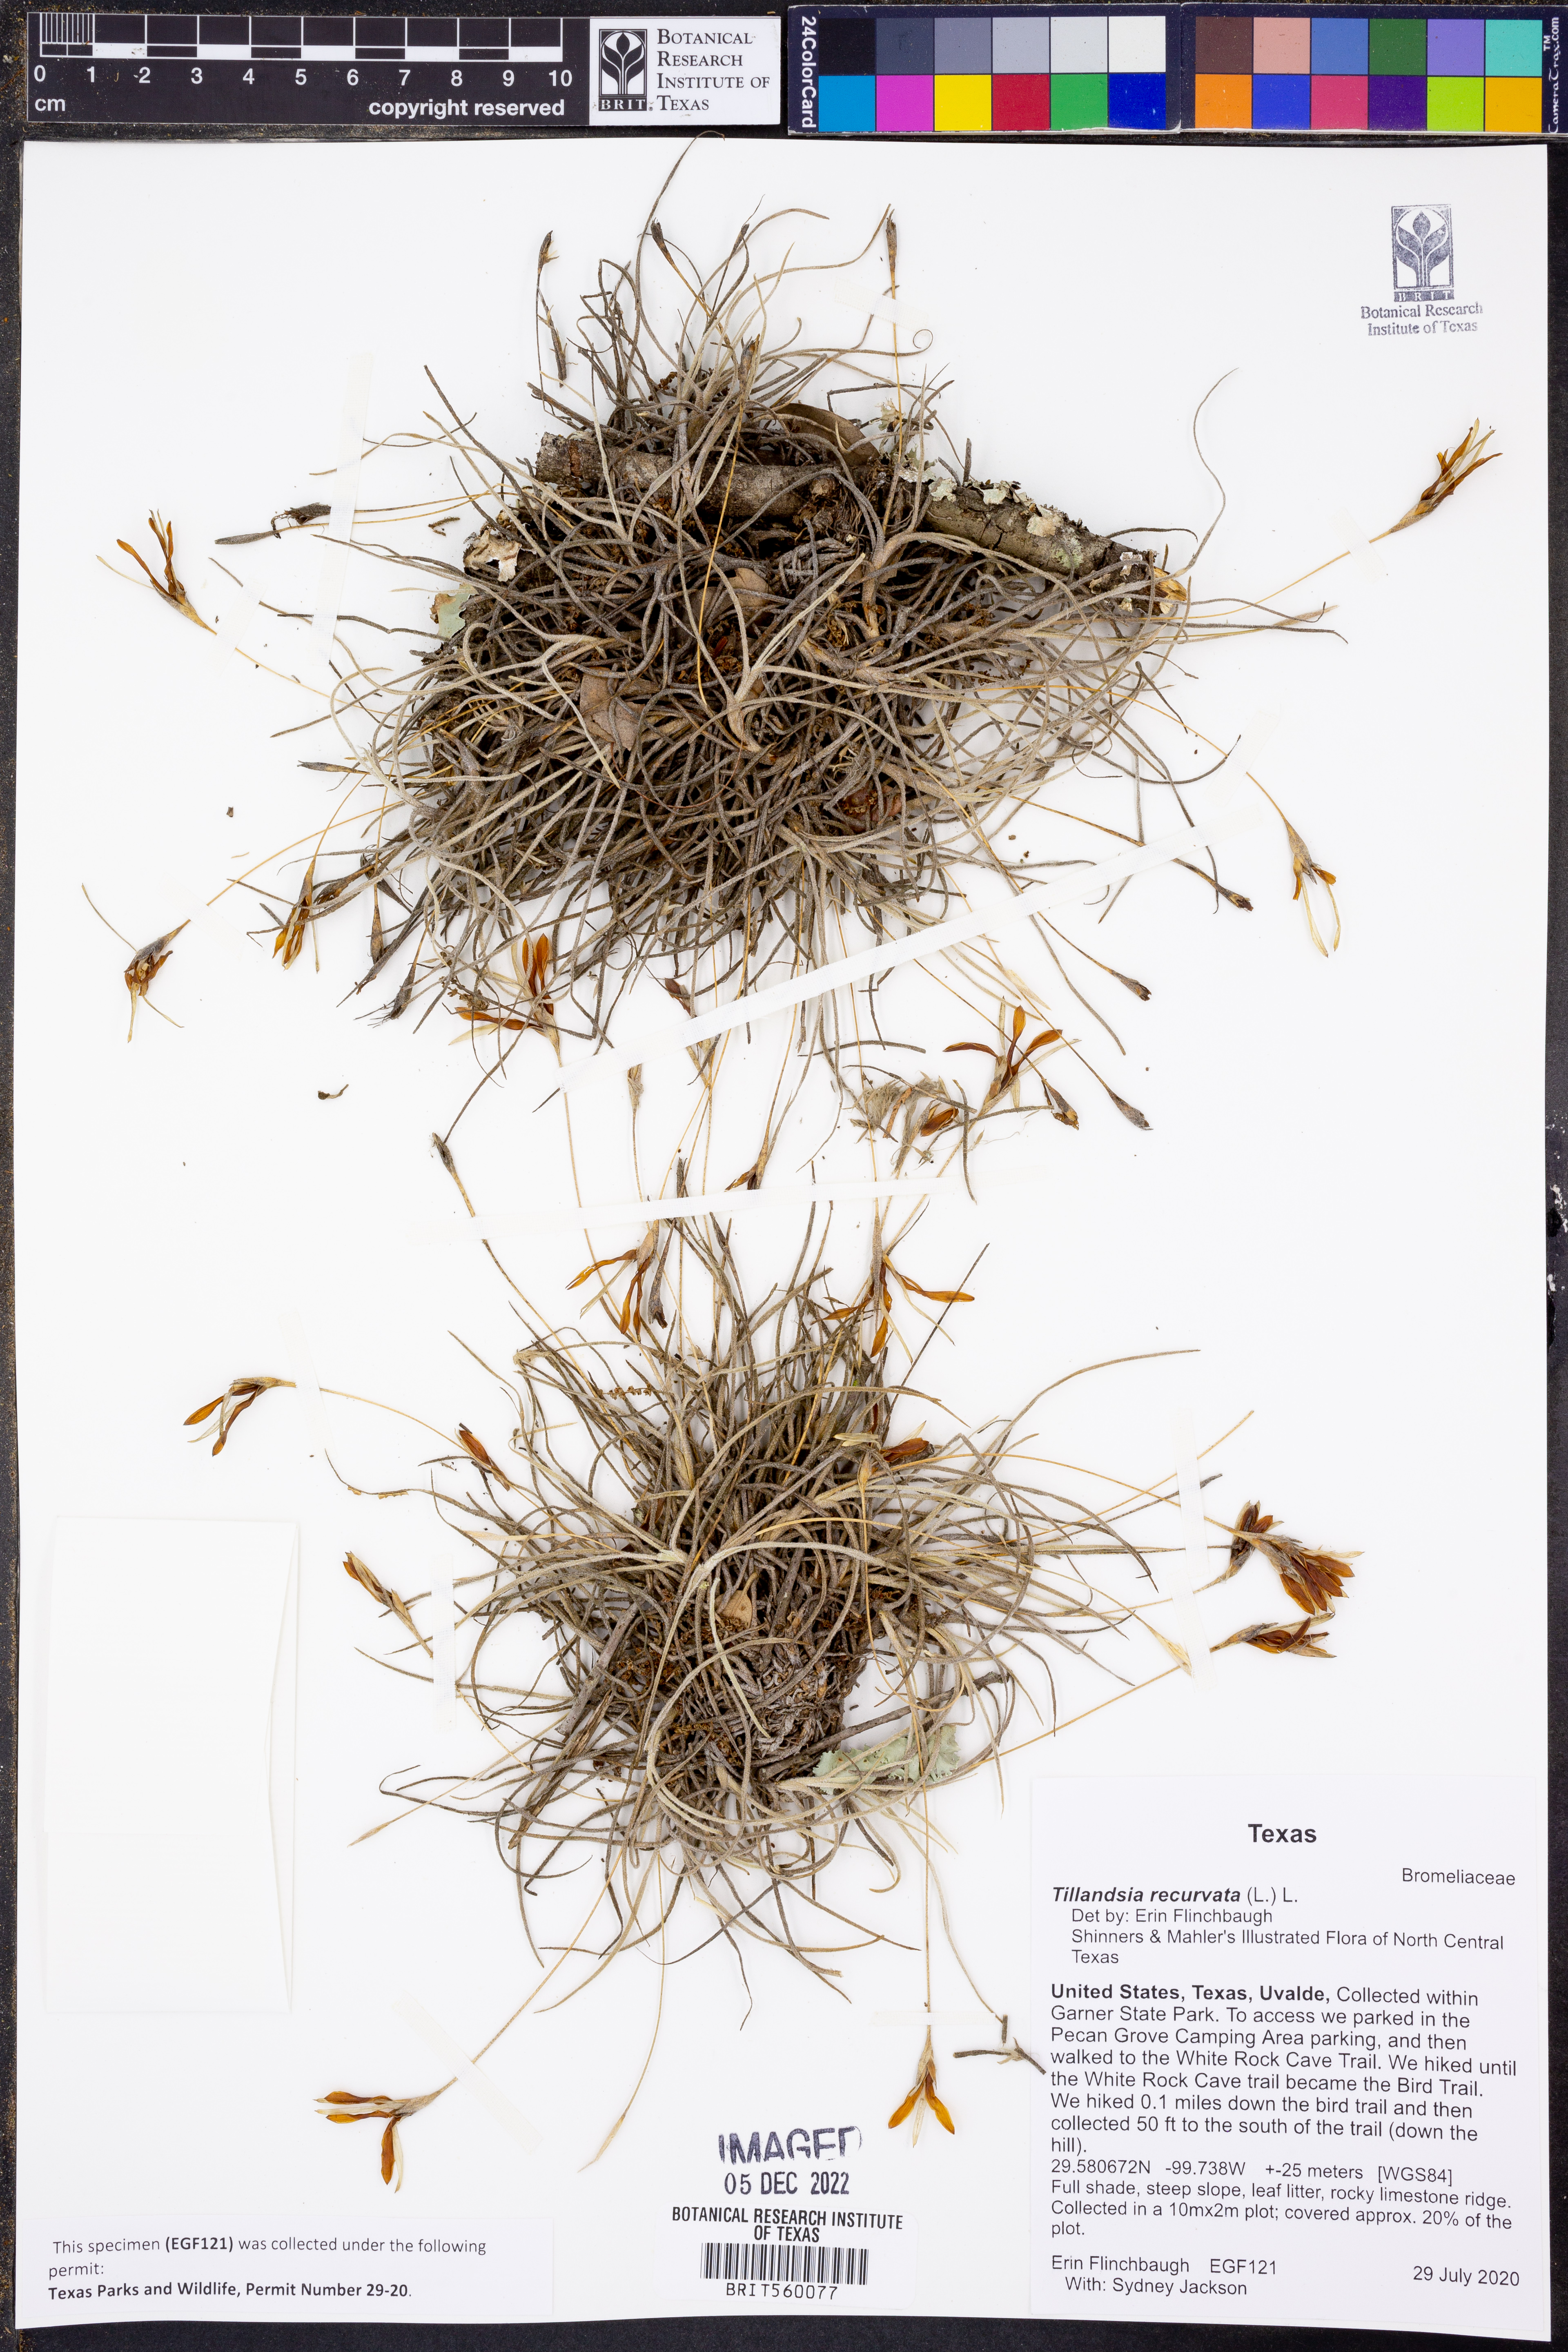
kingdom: Plantae
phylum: Tracheophyta
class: Liliopsida
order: Poales
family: Bromeliaceae
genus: Tillandsia
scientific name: Tillandsia recurvata
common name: Small ballmoss
